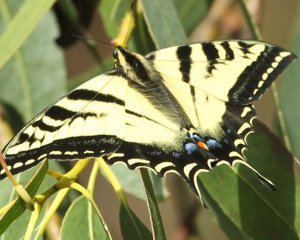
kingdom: Animalia
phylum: Arthropoda
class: Insecta
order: Lepidoptera
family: Papilionidae
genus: Pterourus
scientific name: Pterourus rutulus
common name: Western Tiger Swallowtail
